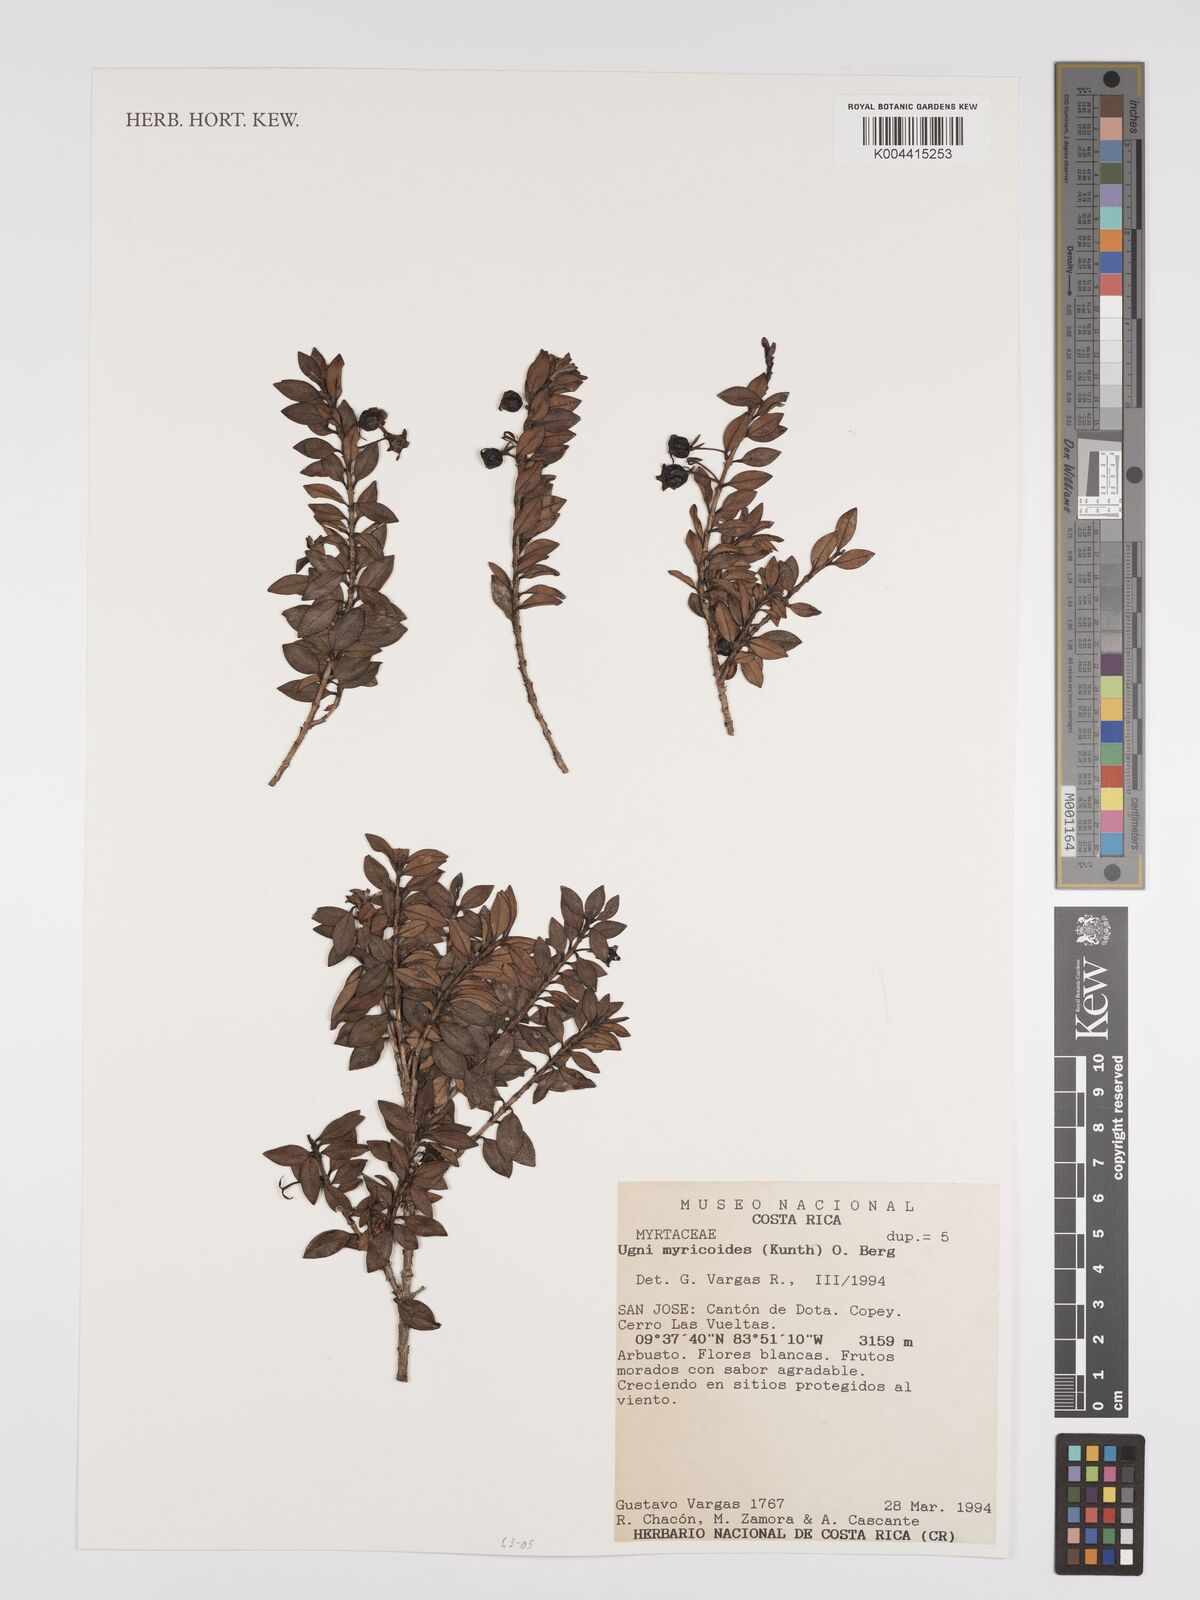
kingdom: Plantae
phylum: Tracheophyta
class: Magnoliopsida
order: Myrtales
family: Myrtaceae
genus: Ugni
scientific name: Ugni myricoides
